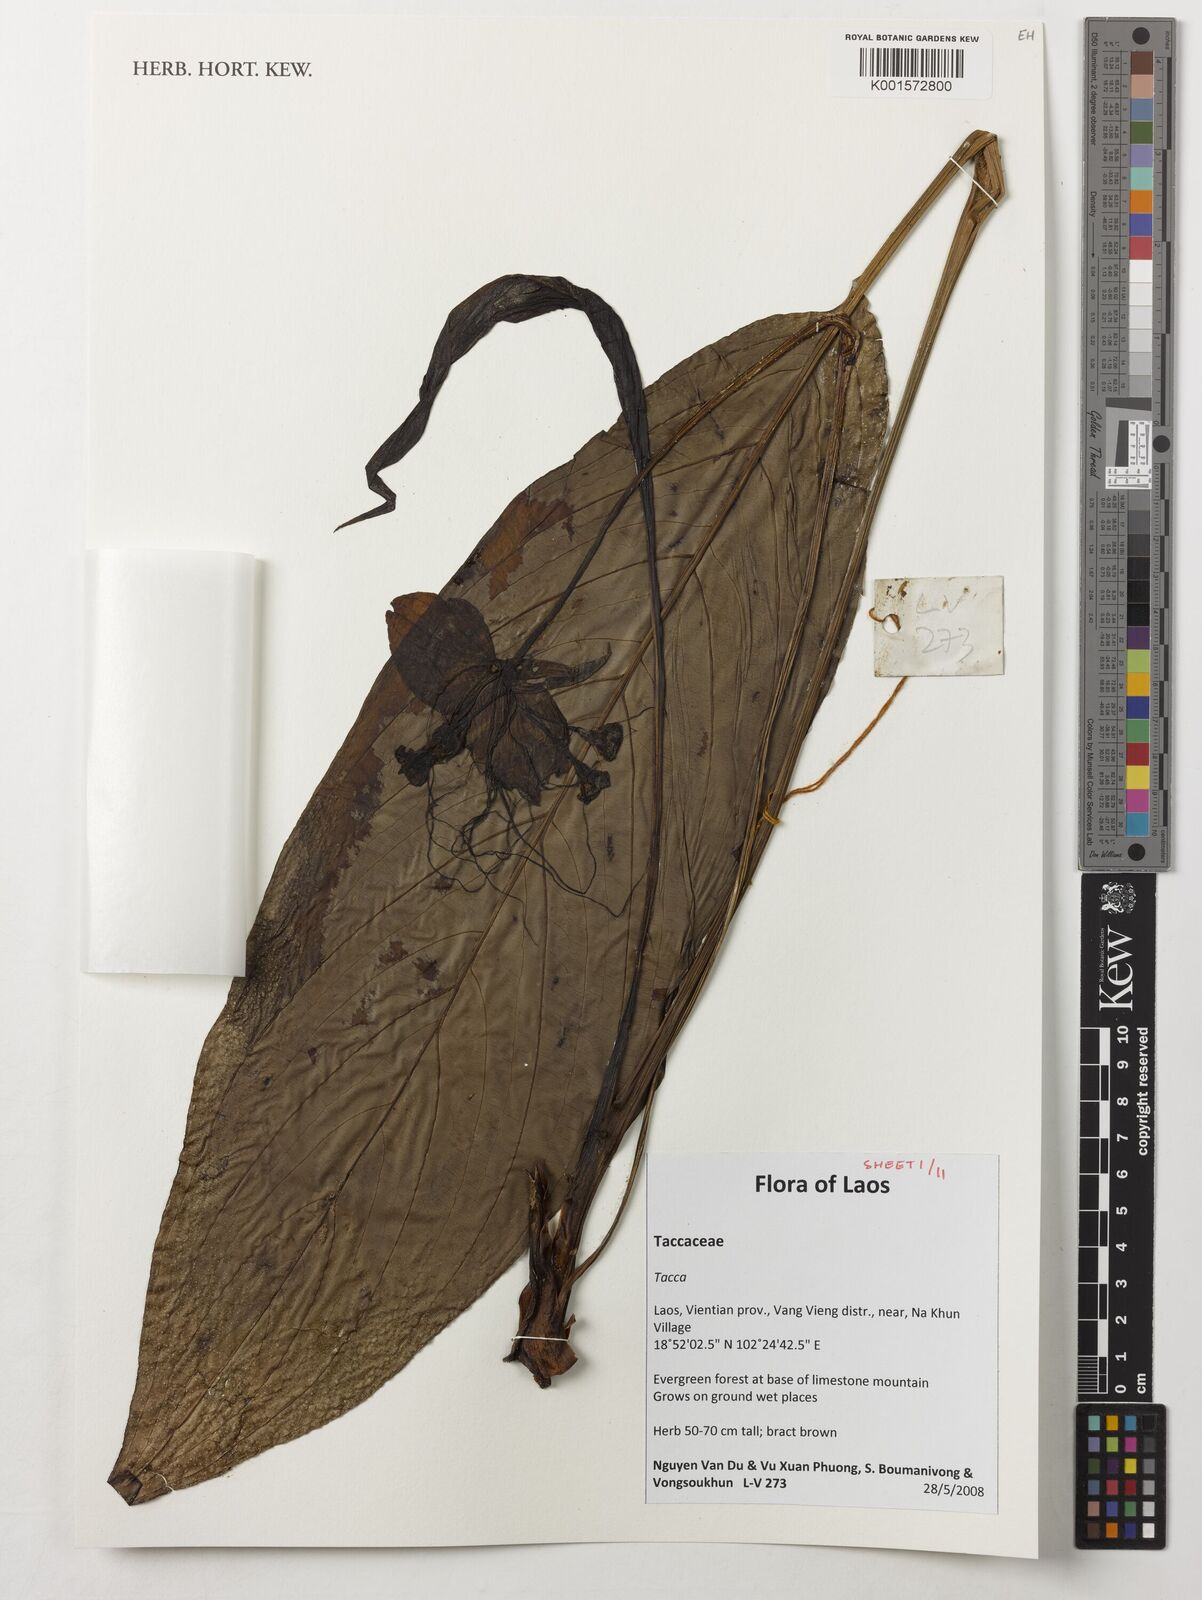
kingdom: Plantae
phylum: Tracheophyta
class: Liliopsida
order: Dioscoreales
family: Dioscoreaceae
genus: Tacca
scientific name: Tacca
